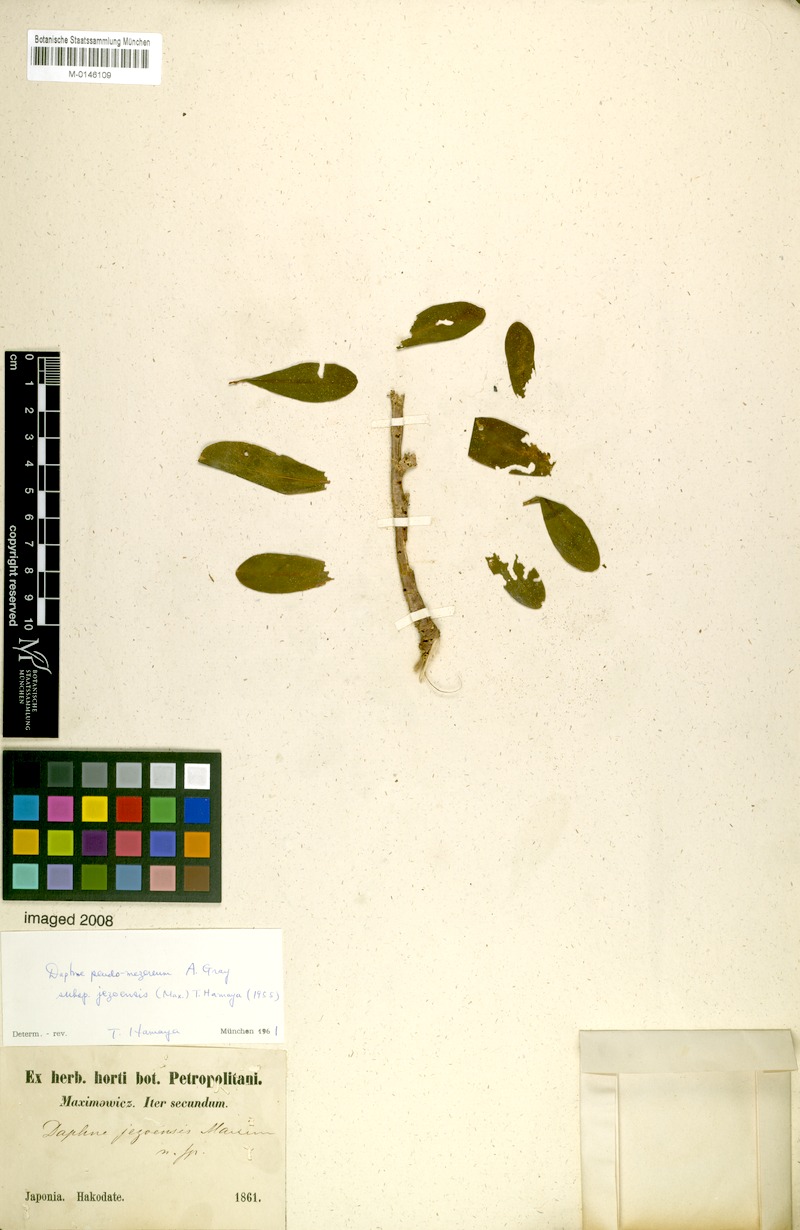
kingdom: Plantae
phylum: Tracheophyta
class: Magnoliopsida
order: Malvales
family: Thymelaeaceae
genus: Daphne
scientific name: Daphne jezoensis
